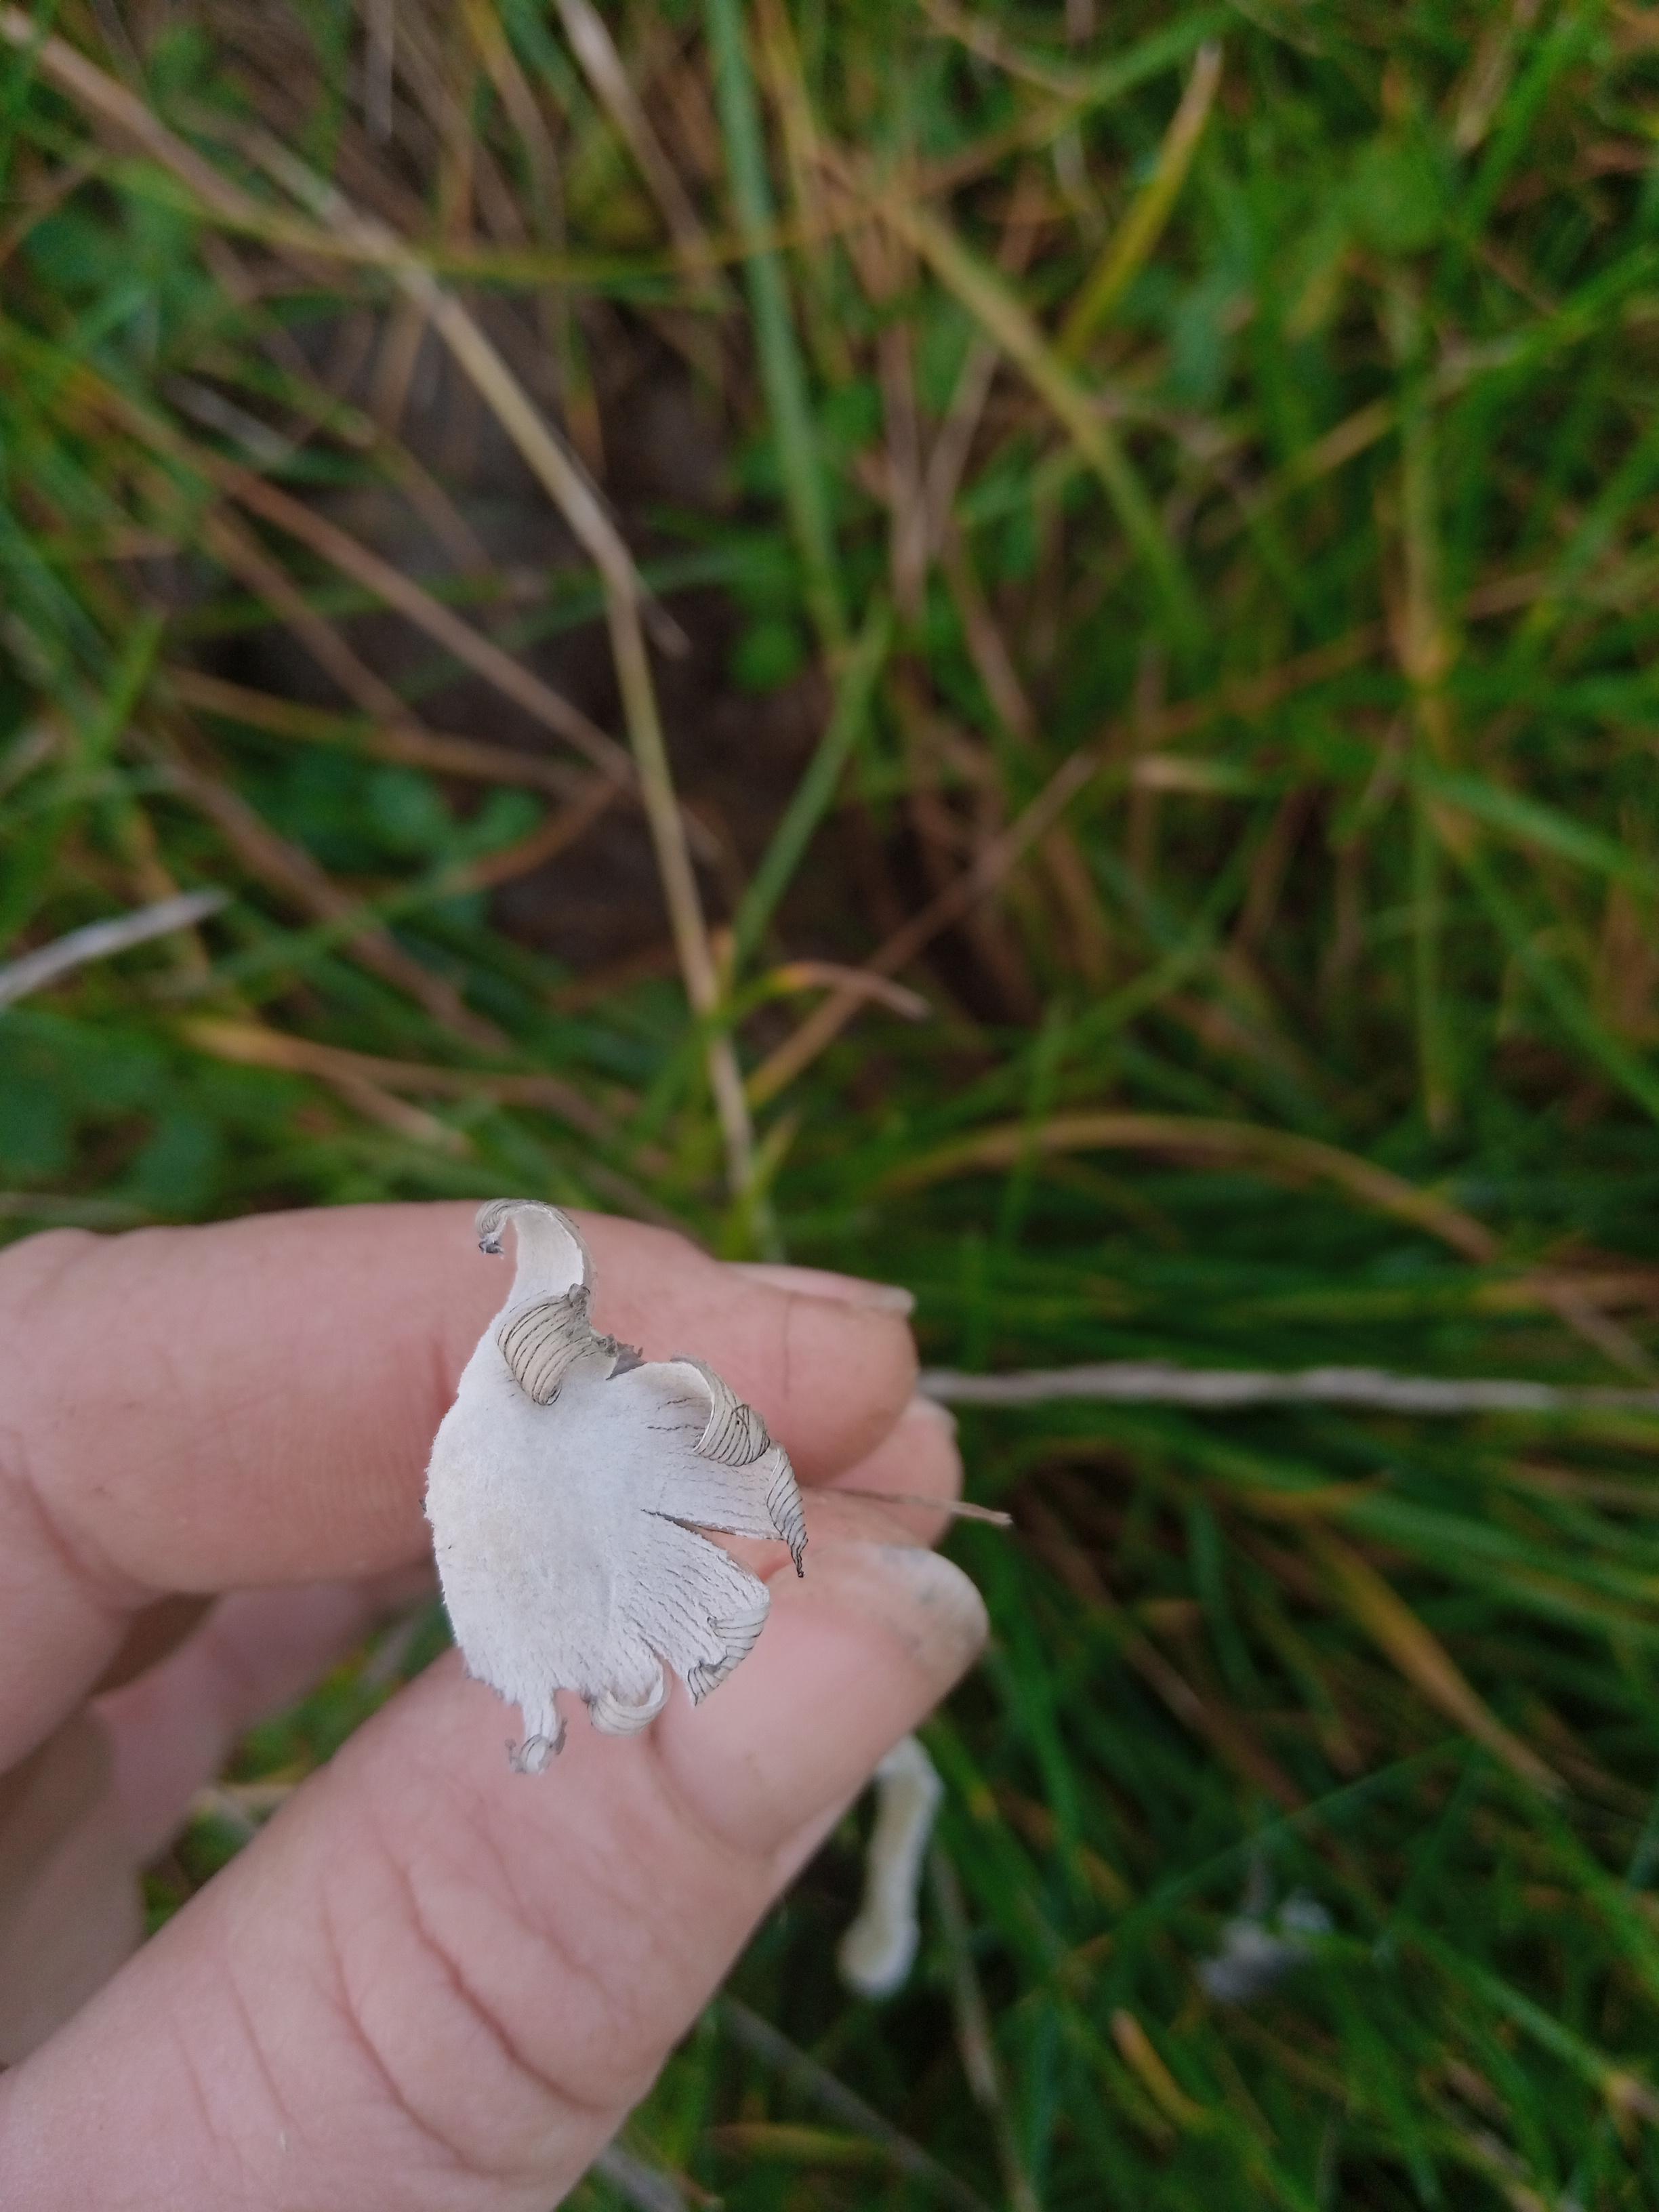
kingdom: Fungi
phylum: Basidiomycota
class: Agaricomycetes
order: Agaricales
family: Psathyrellaceae
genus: Coprinopsis
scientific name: Coprinopsis nivea
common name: snehvid blækhat
